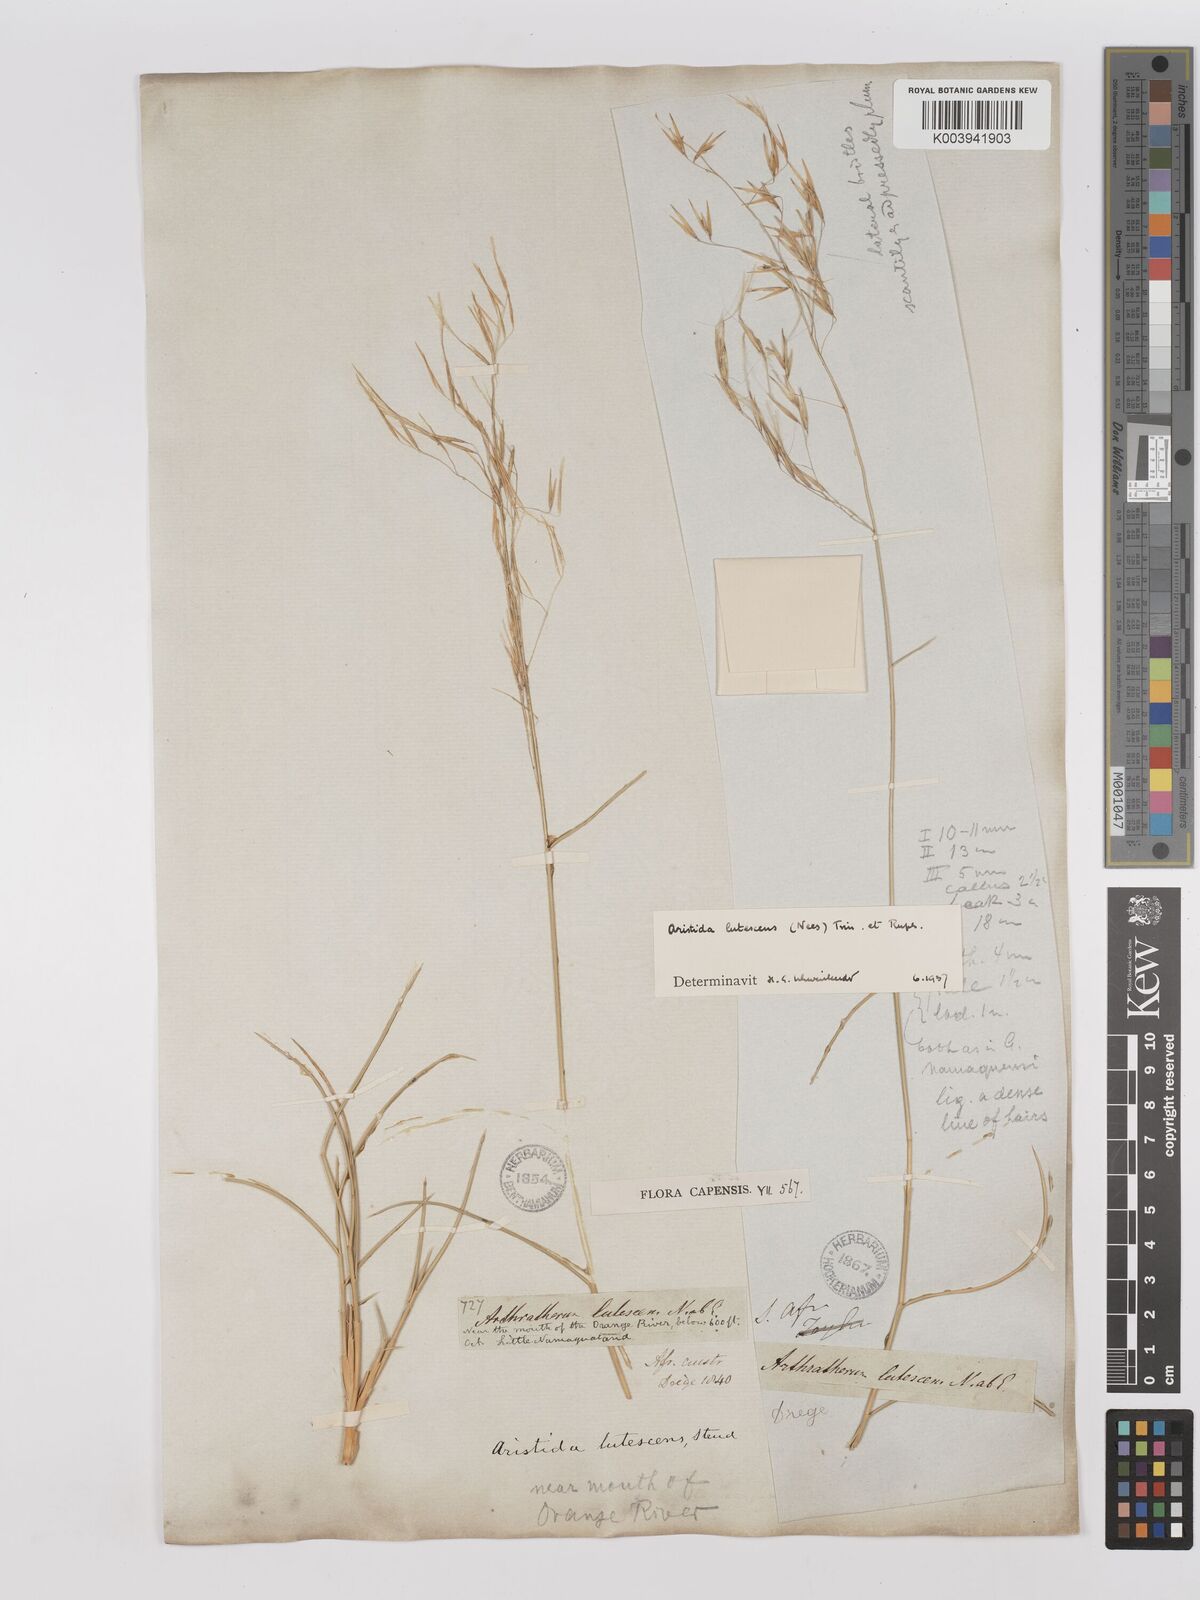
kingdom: Plantae
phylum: Tracheophyta
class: Liliopsida
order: Poales
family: Poaceae
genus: Stipagrostis
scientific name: Stipagrostis lutescens
